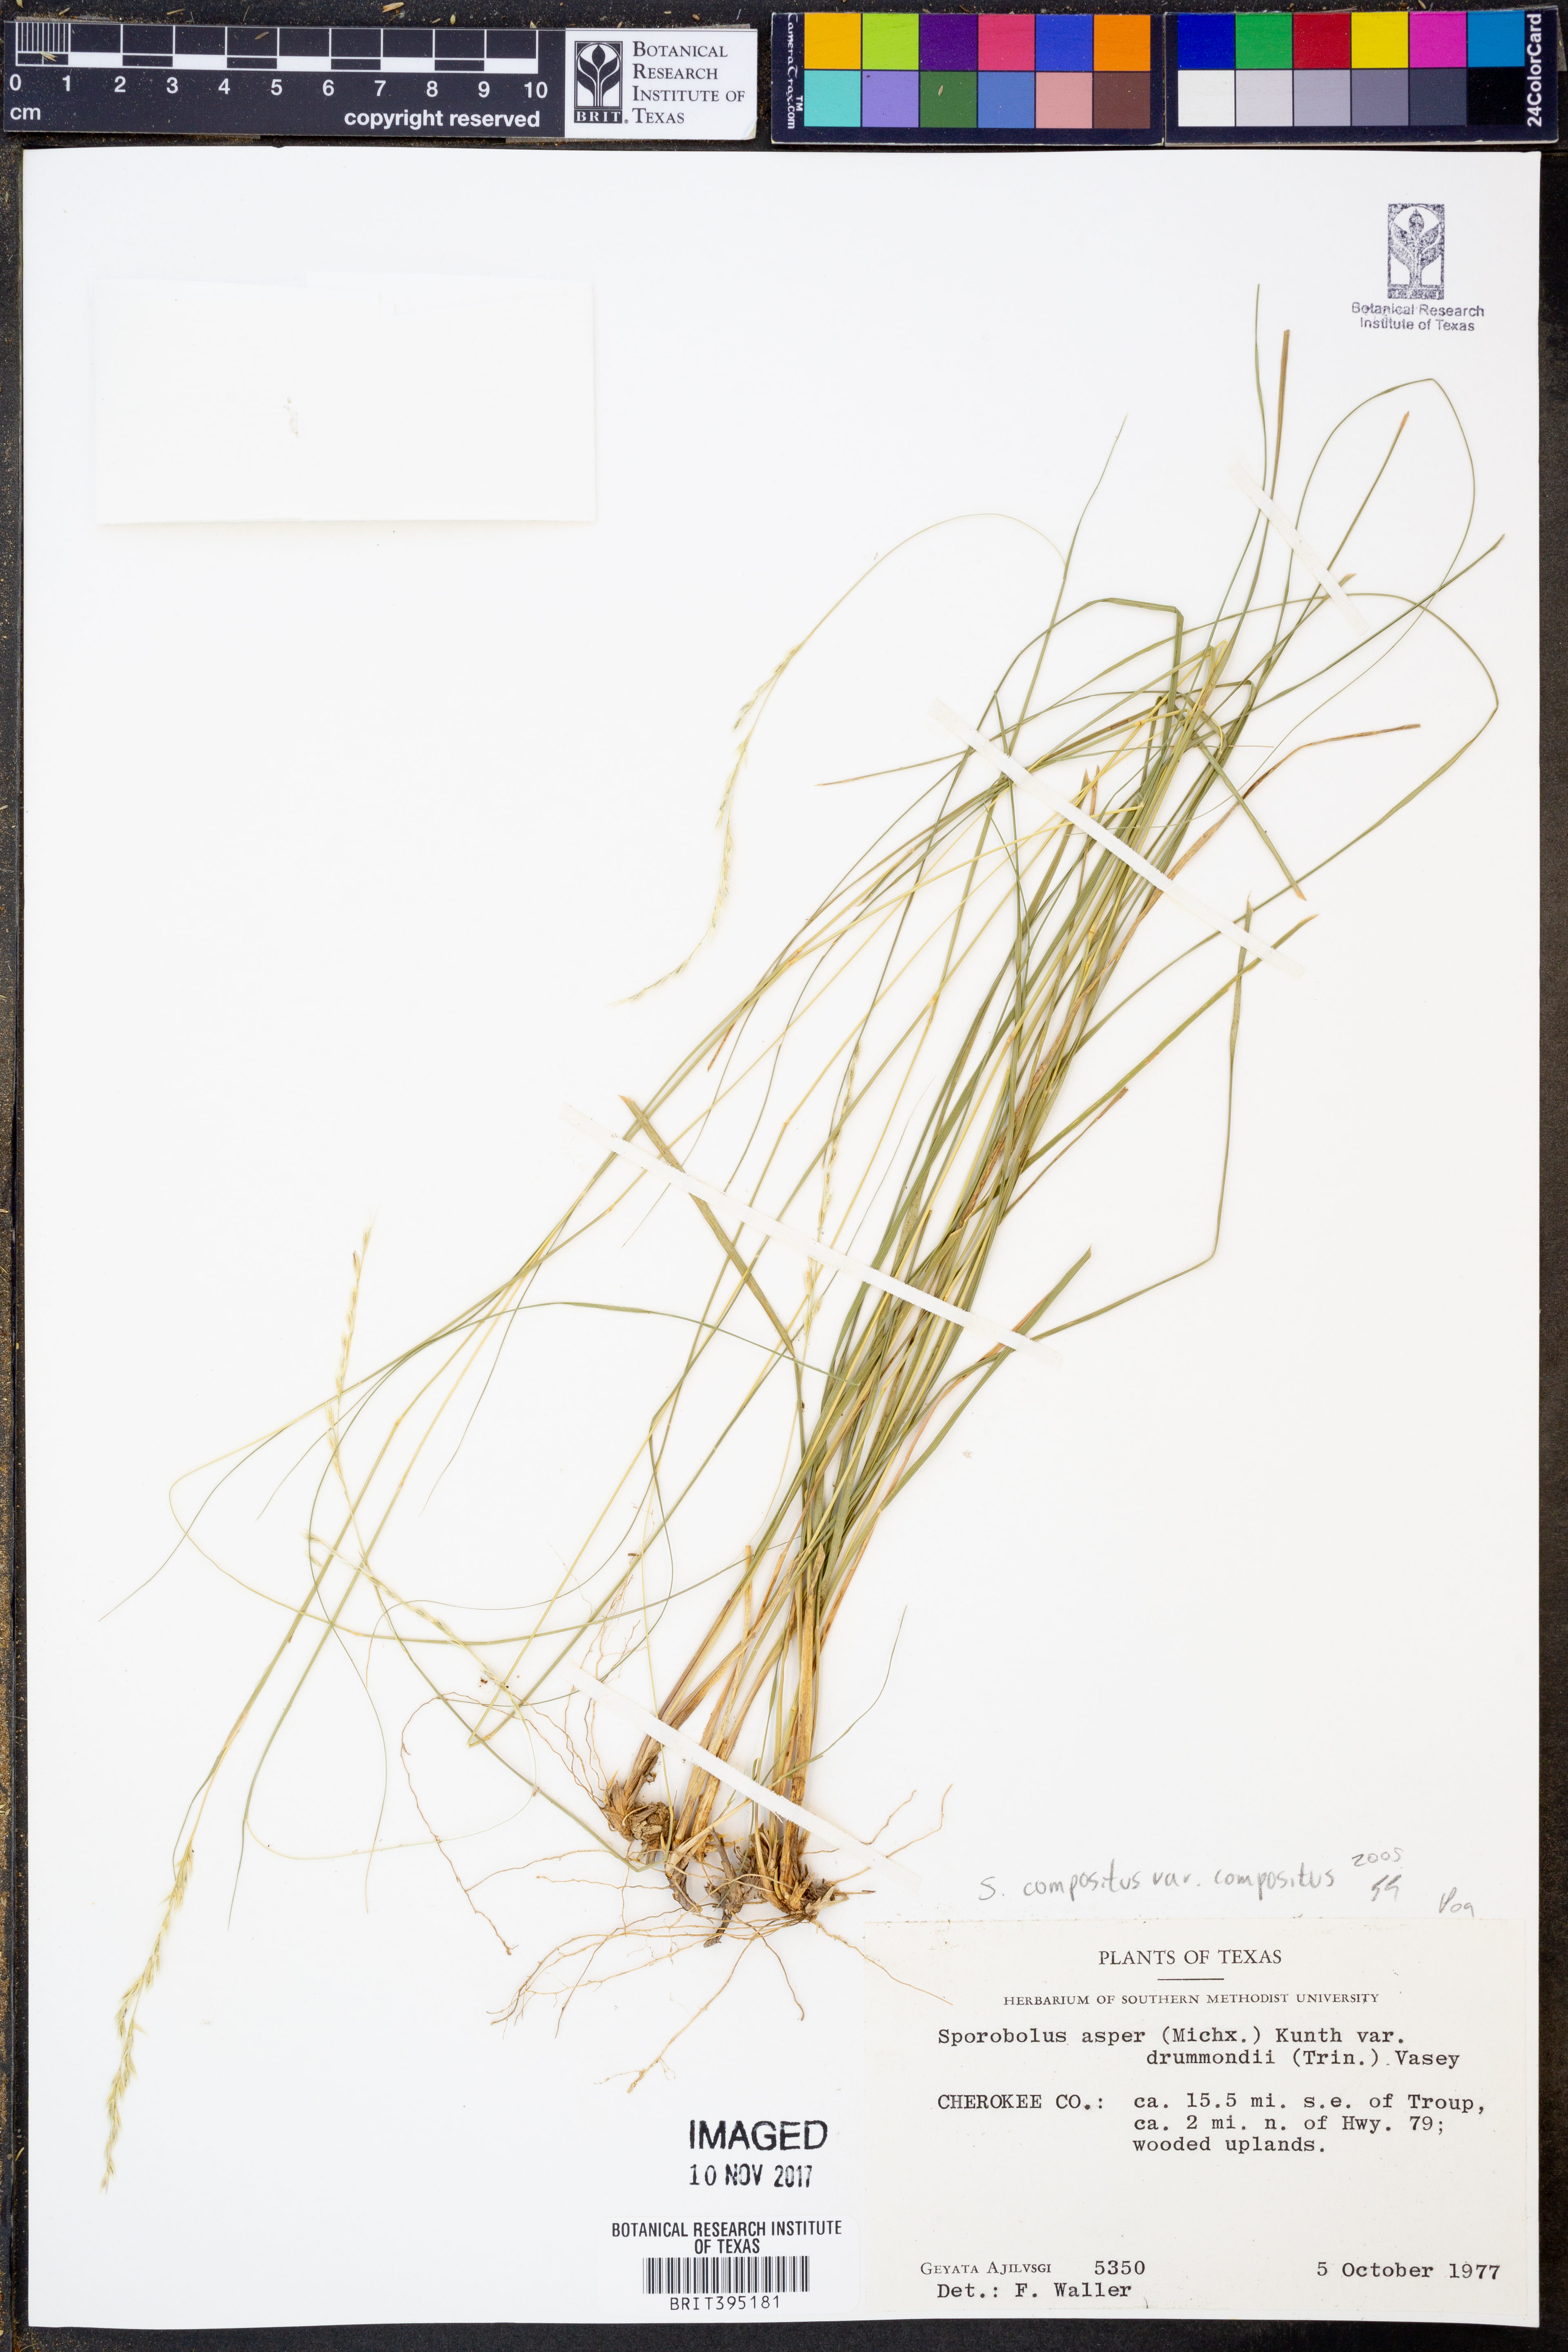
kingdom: Plantae
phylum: Tracheophyta
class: Liliopsida
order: Poales
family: Poaceae
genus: Sporobolus
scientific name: Sporobolus compositus
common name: Rough dropseed
